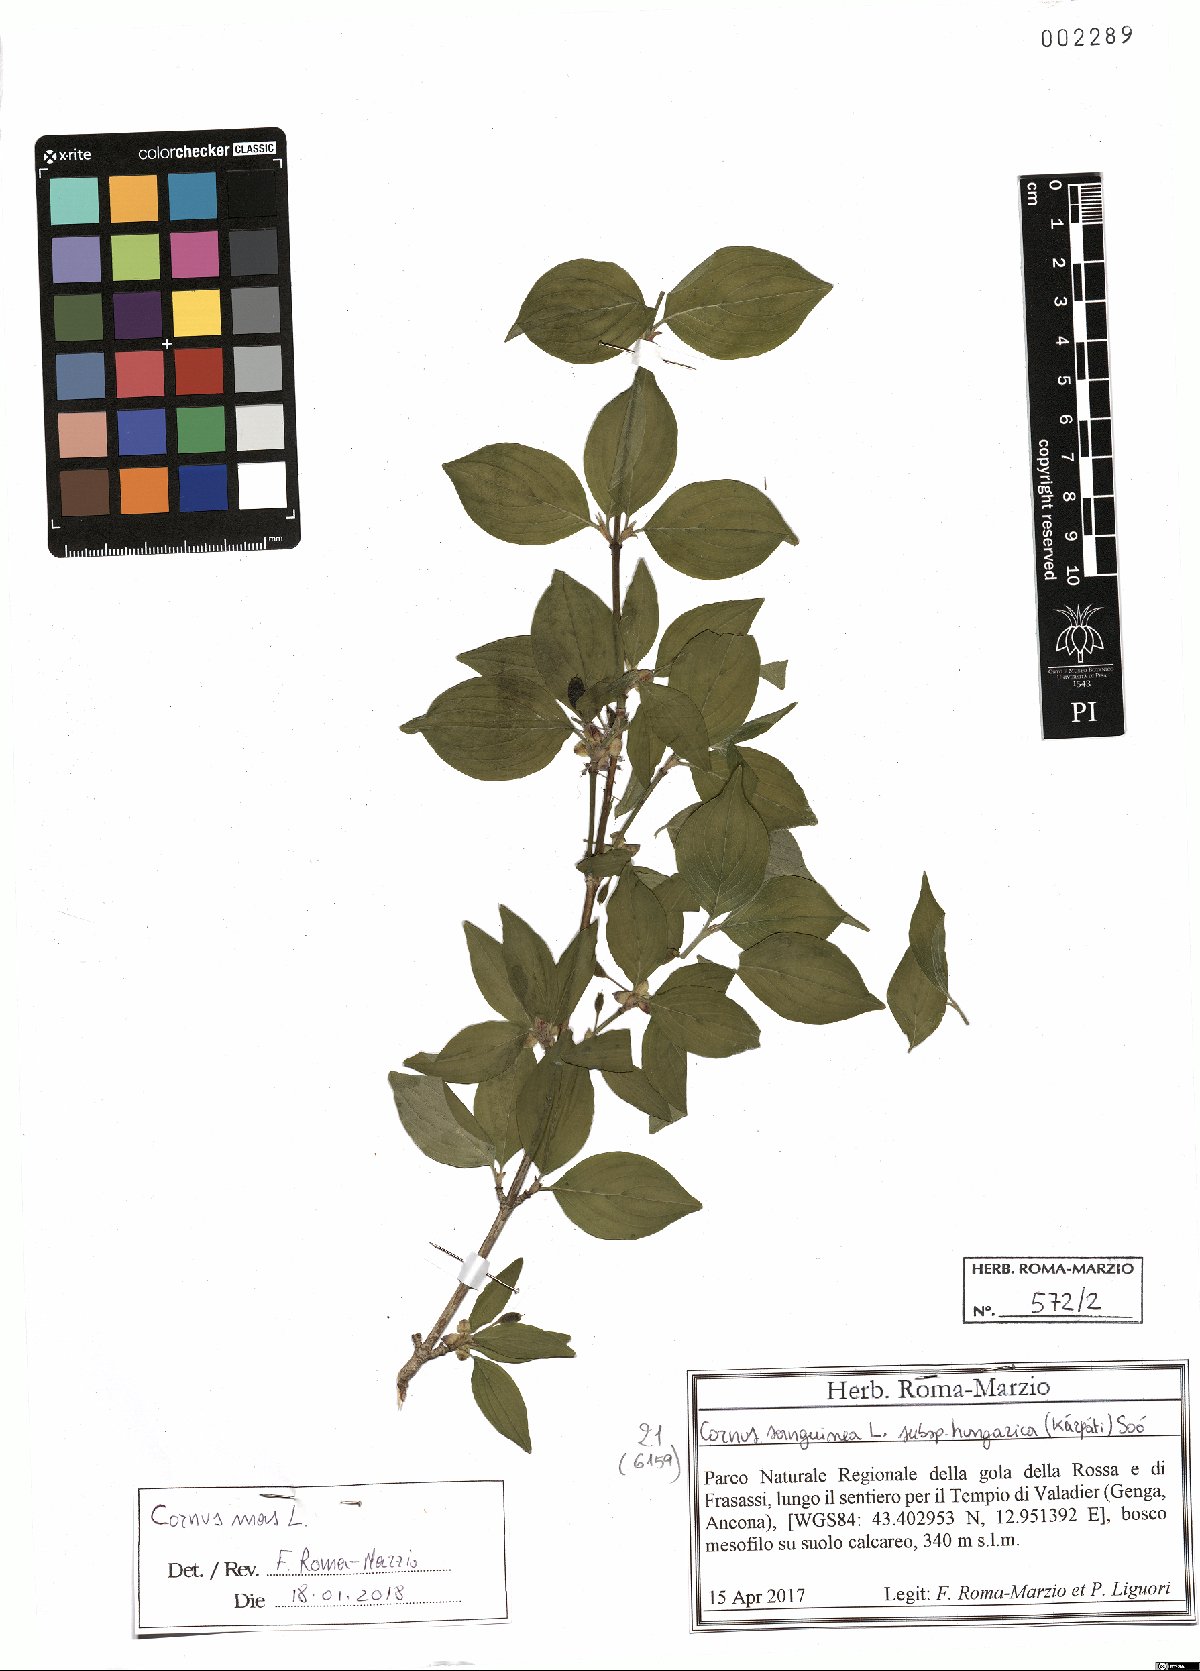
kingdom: Plantae
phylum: Tracheophyta
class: Magnoliopsida
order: Cornales
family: Cornaceae
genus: Cornus
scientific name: Cornus mas
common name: Cornelian-cherry
